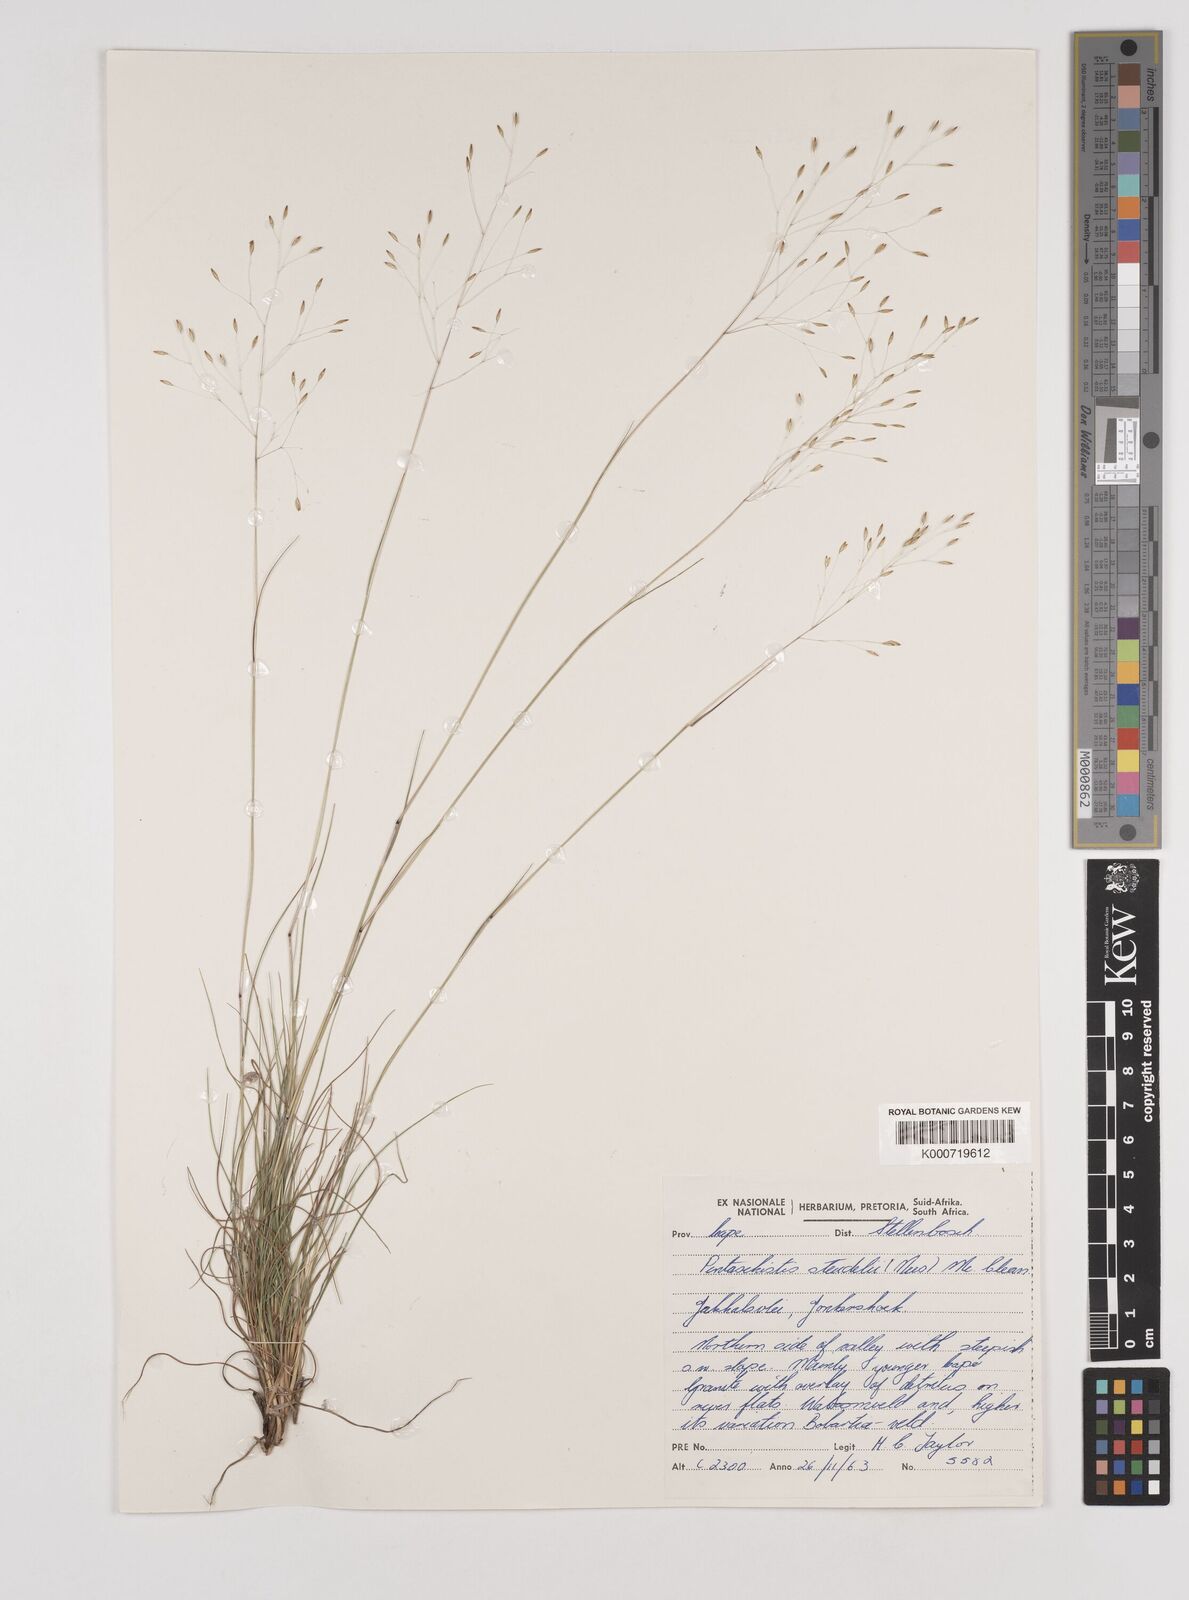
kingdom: Plantae
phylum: Tracheophyta
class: Liliopsida
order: Poales
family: Poaceae
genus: Pentameris
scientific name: Pentameris malouinensis
